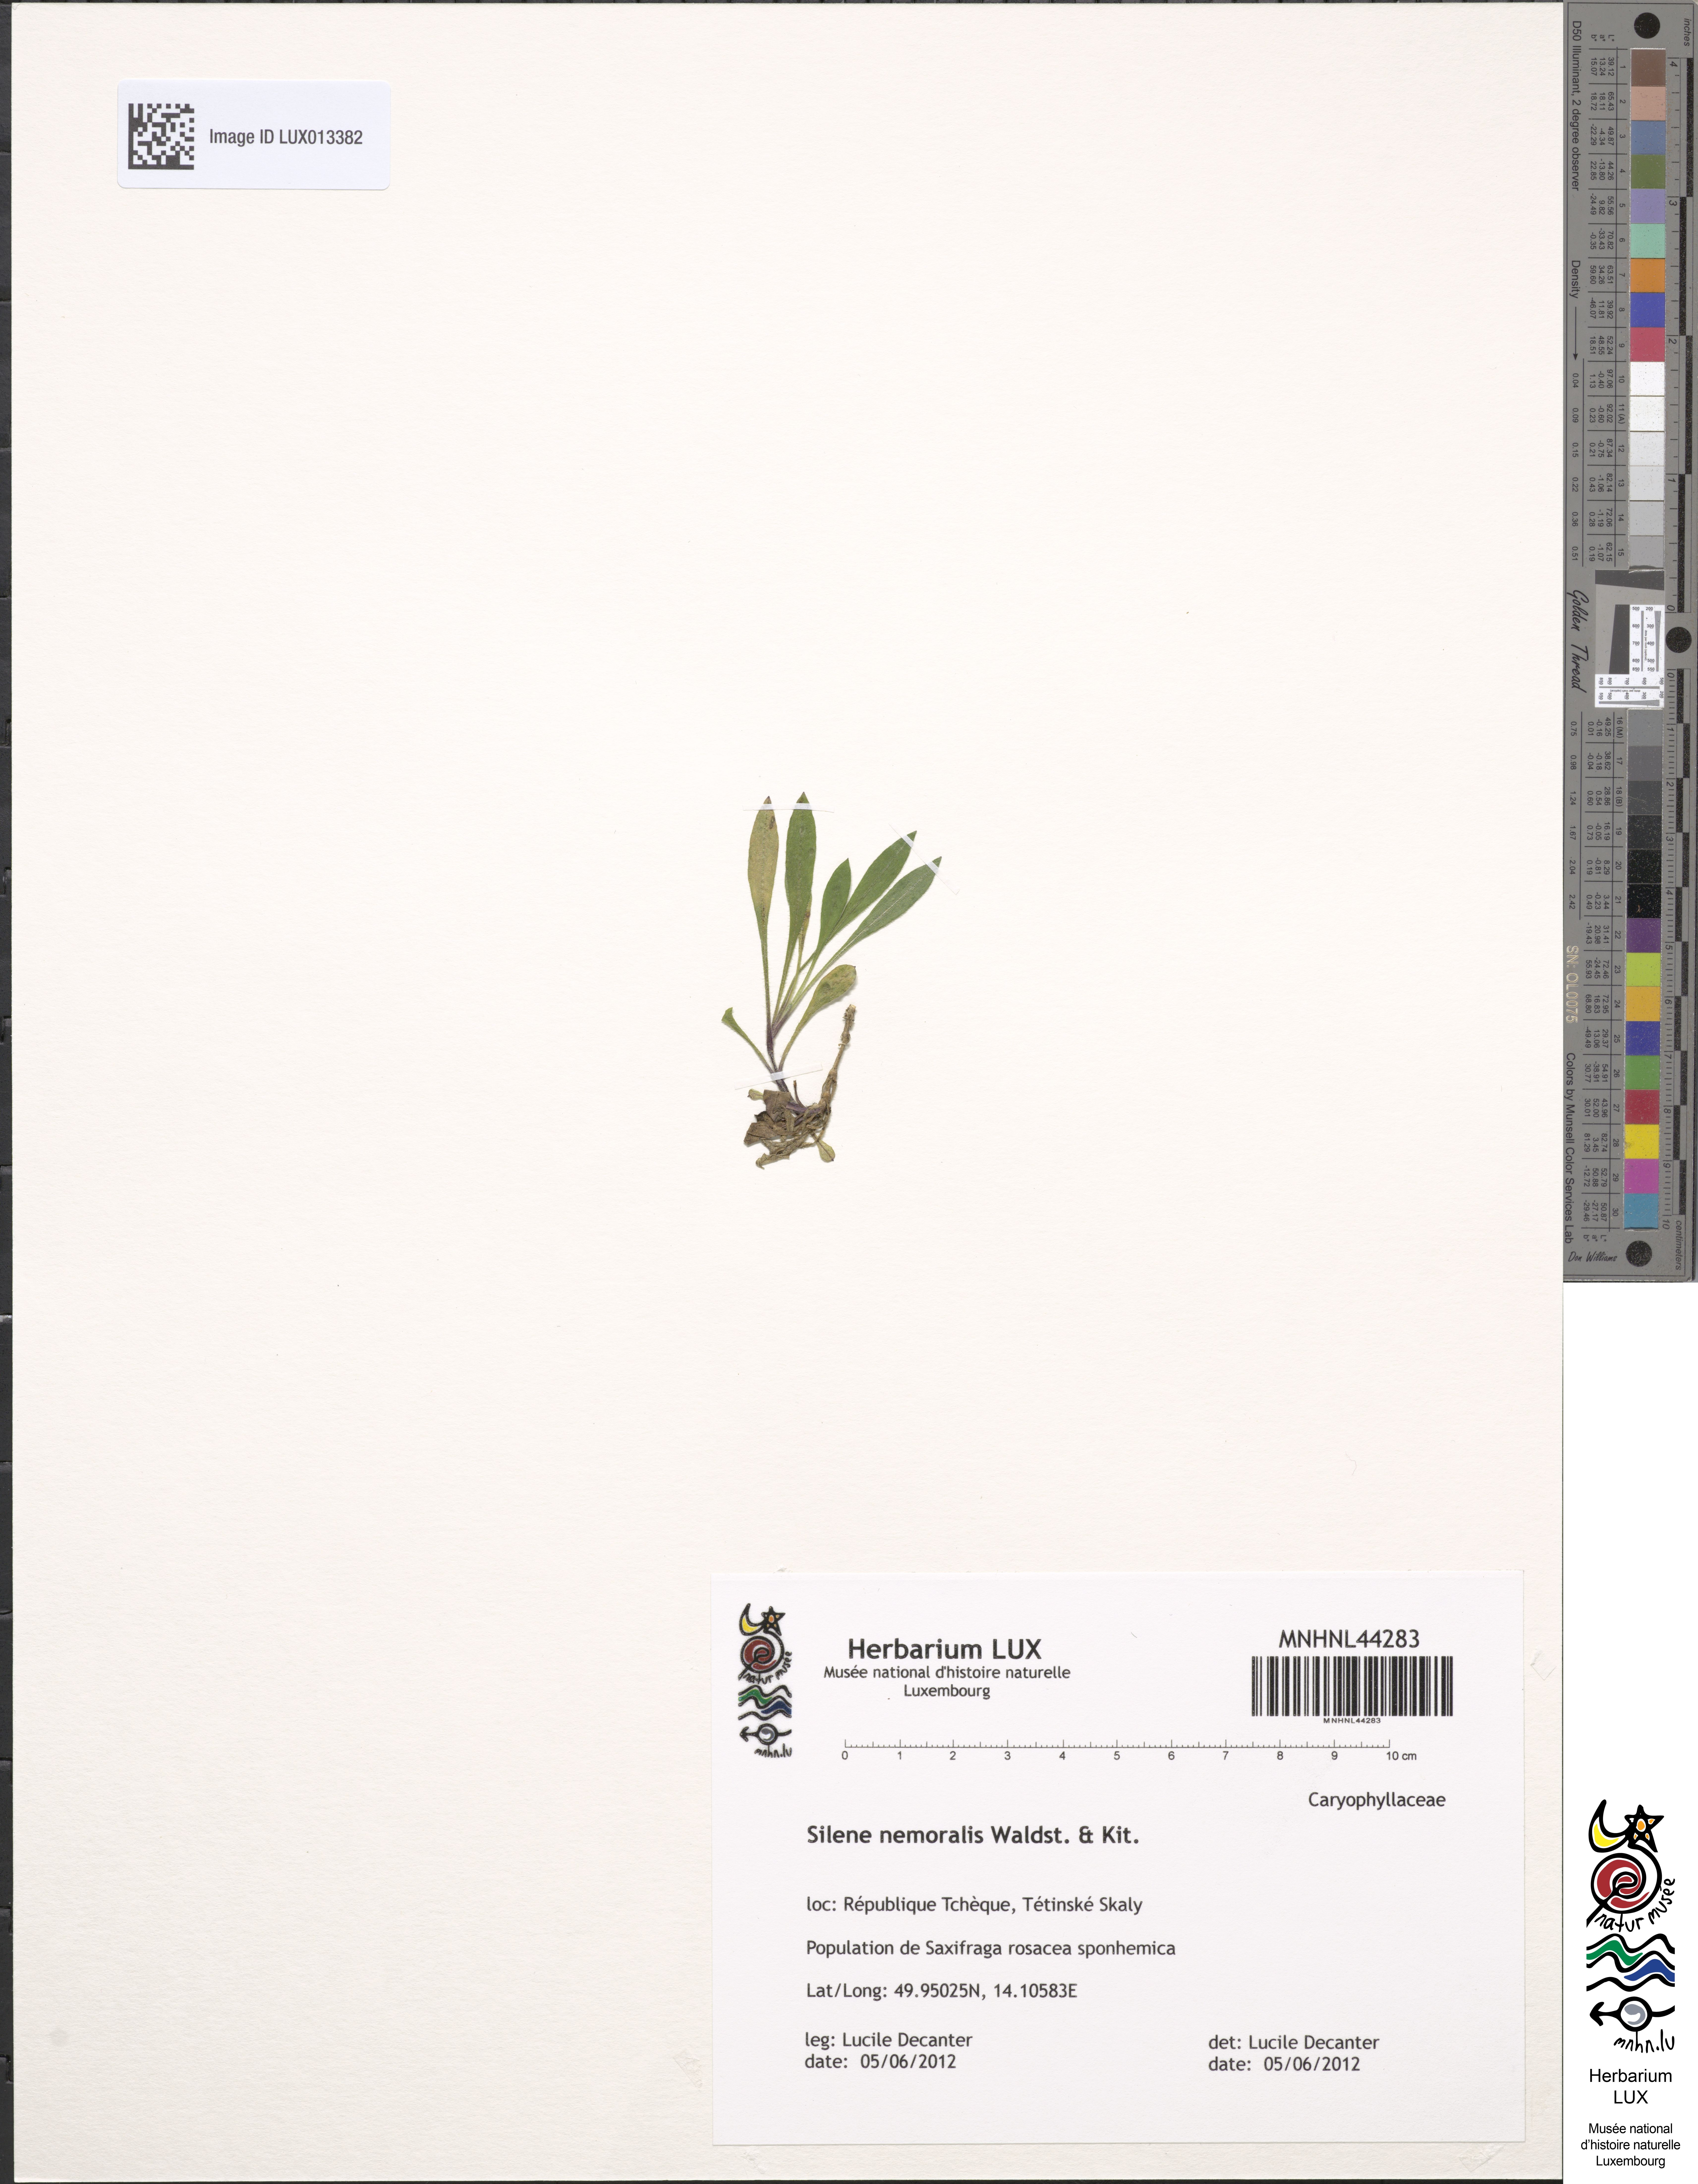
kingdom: Plantae
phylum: Tracheophyta
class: Magnoliopsida
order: Caryophyllales
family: Caryophyllaceae
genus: Silene
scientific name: Silene nemoralis
